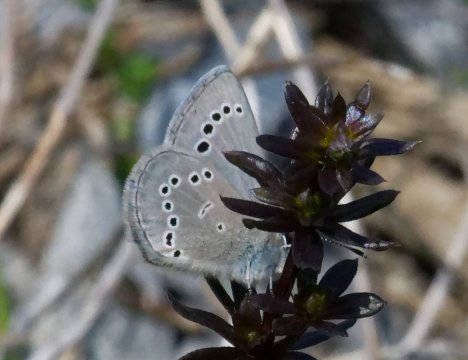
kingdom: Animalia
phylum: Arthropoda
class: Insecta
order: Lepidoptera
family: Lycaenidae
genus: Glaucopsyche
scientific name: Glaucopsyche lygdamus
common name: Silvery Blue
